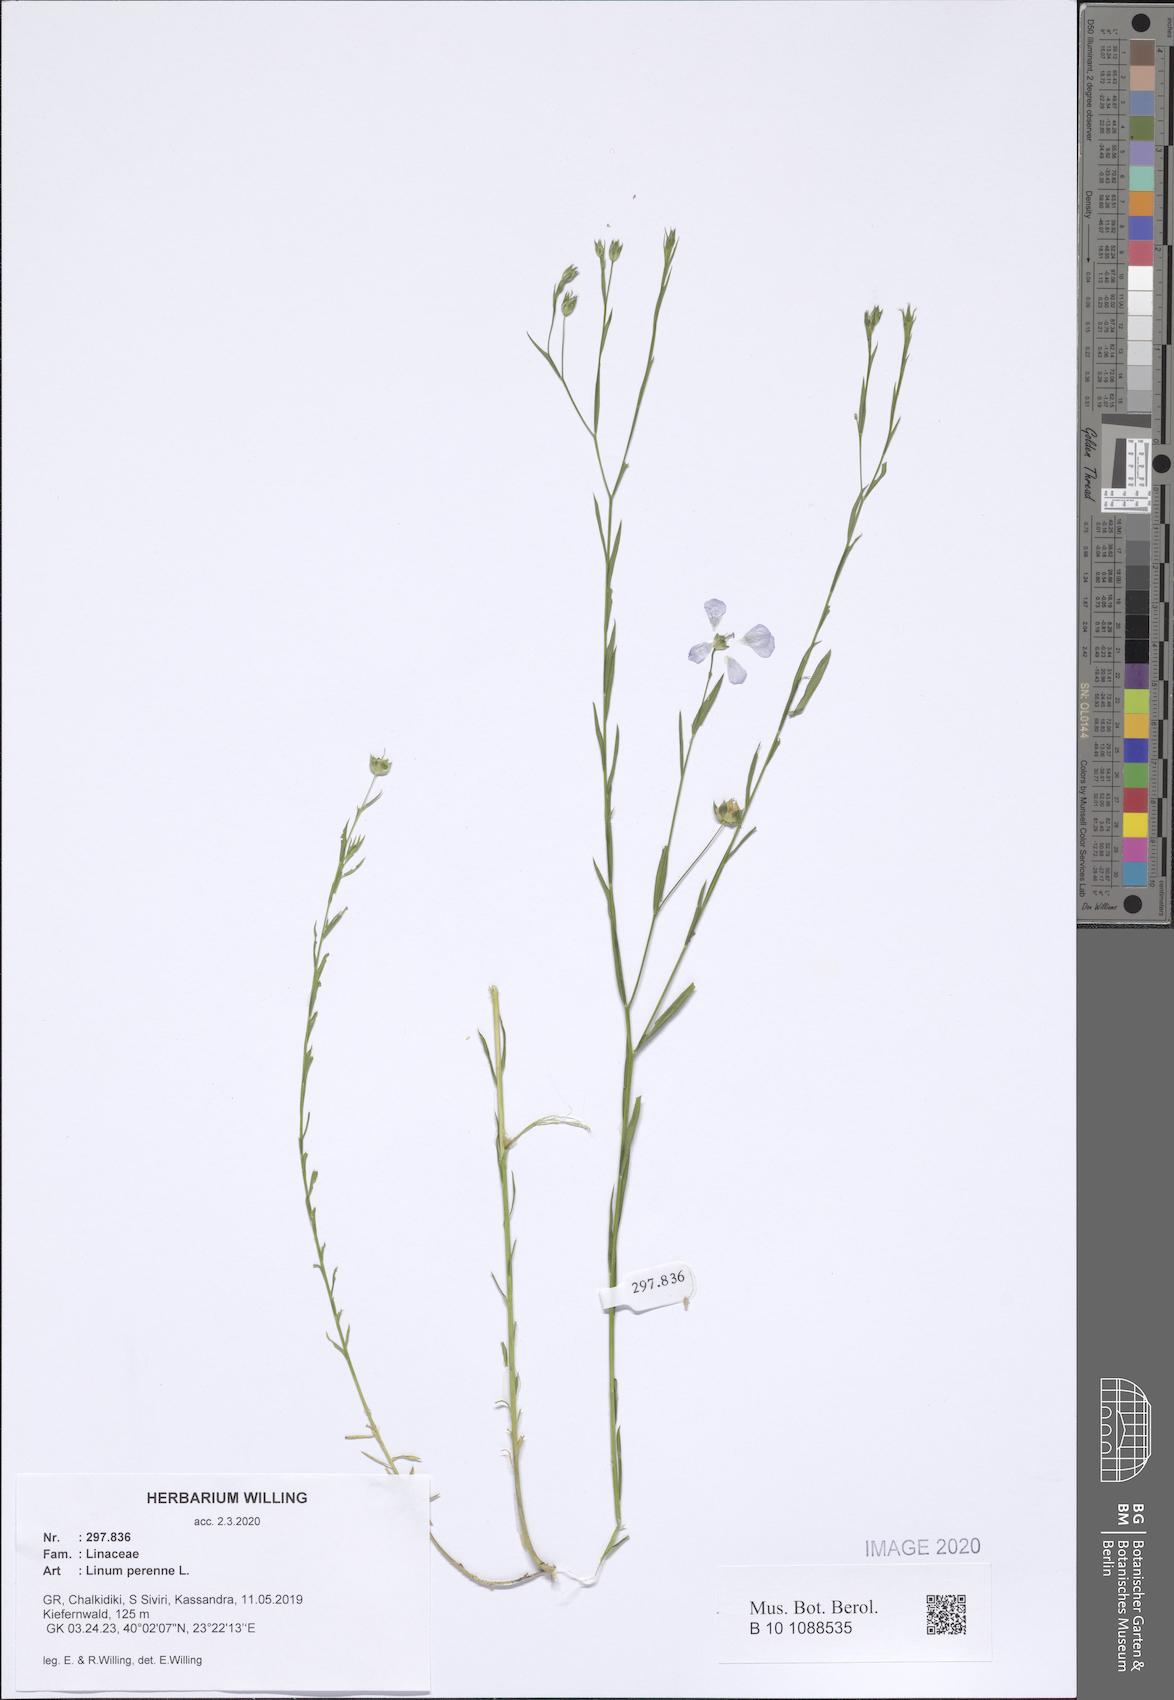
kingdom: Plantae
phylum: Tracheophyta
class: Magnoliopsida
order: Malpighiales
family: Linaceae
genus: Linum
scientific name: Linum perenne
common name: Blue flax
